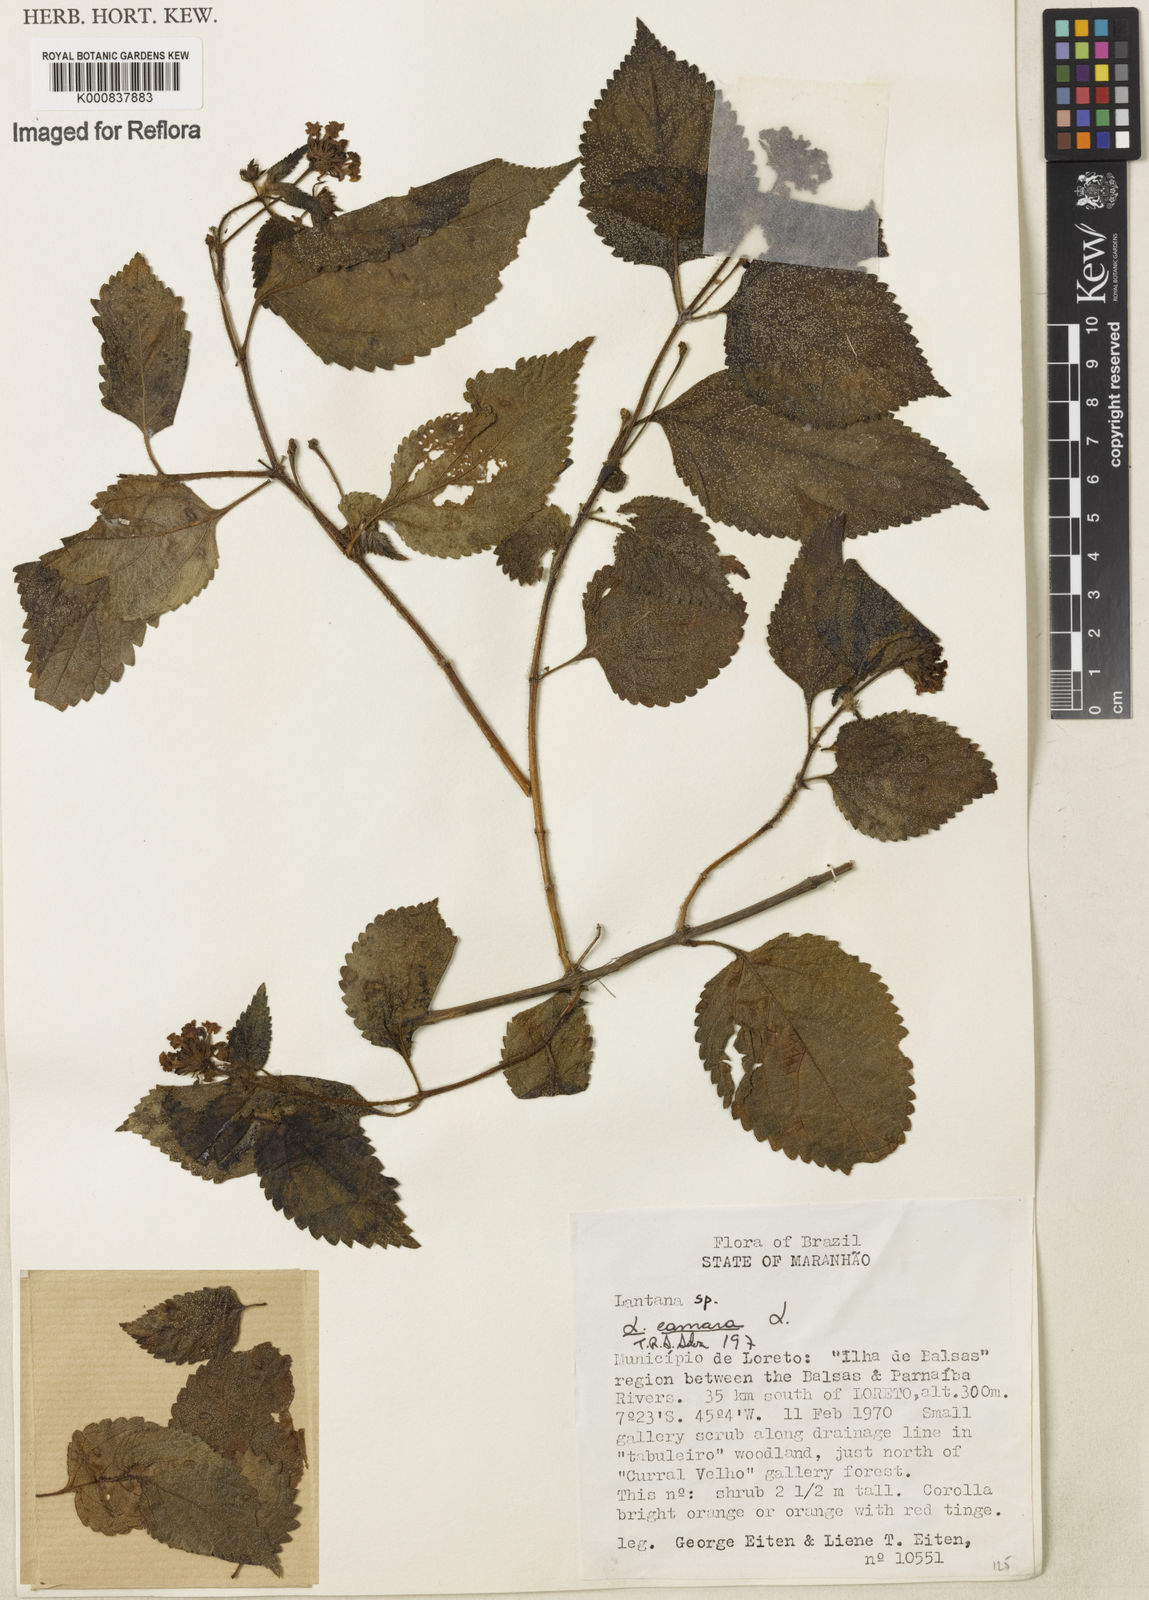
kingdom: Plantae
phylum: Tracheophyta
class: Magnoliopsida
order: Lamiales
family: Verbenaceae
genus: Lantana
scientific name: Lantana camara
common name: Lantana
